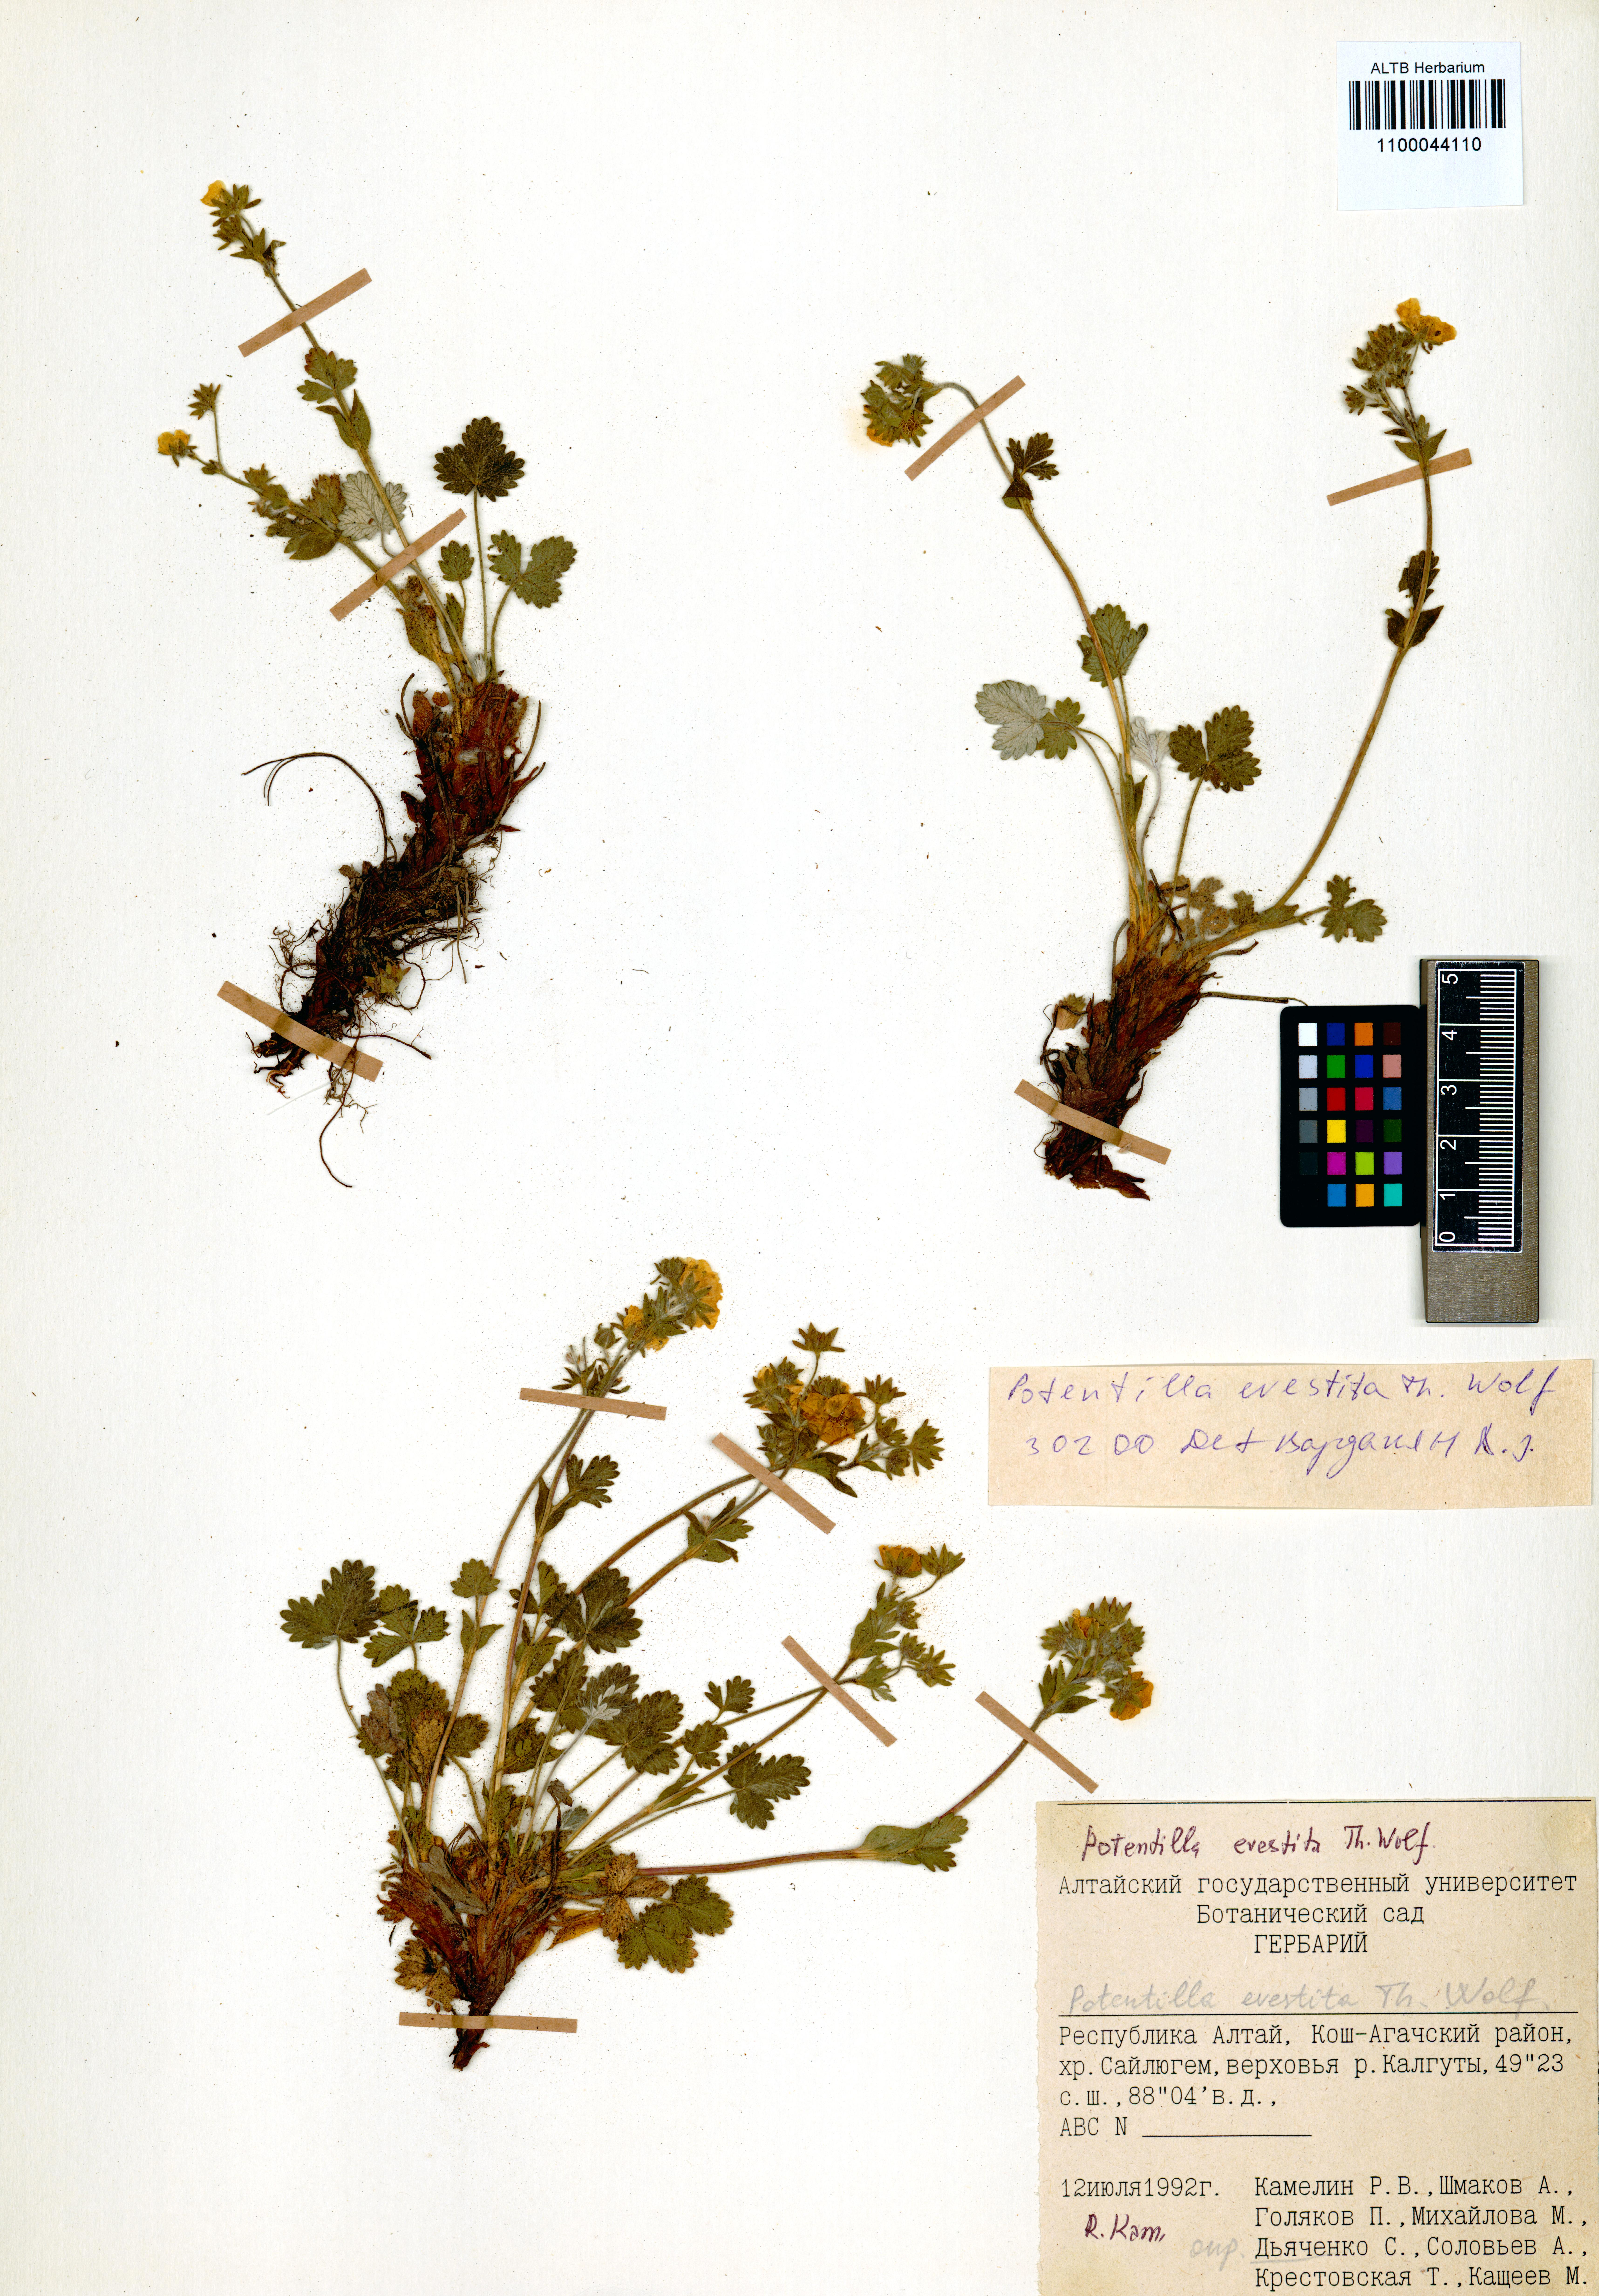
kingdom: Plantae
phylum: Tracheophyta
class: Magnoliopsida
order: Rosales
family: Rosaceae
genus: Potentilla
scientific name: Potentilla evestita
